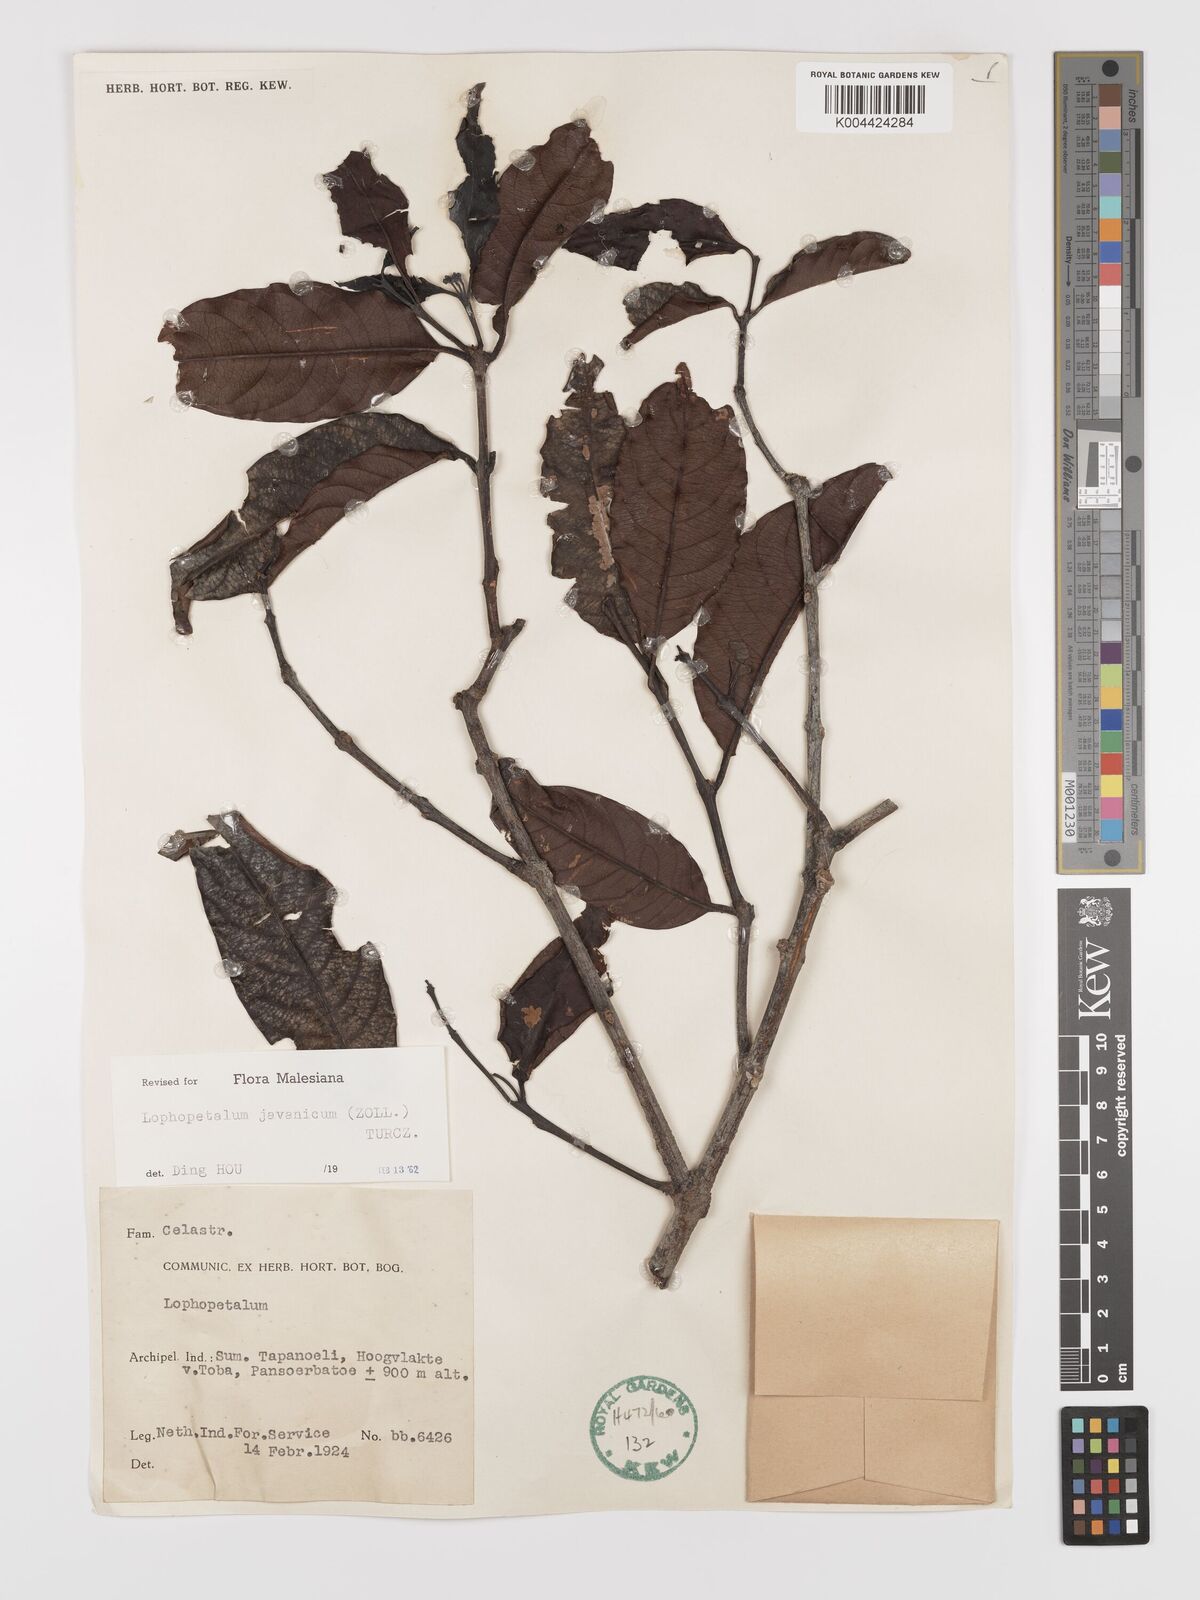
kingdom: Plantae
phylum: Tracheophyta
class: Magnoliopsida
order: Celastrales
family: Celastraceae
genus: Lophopetalum
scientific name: Lophopetalum javanicum
